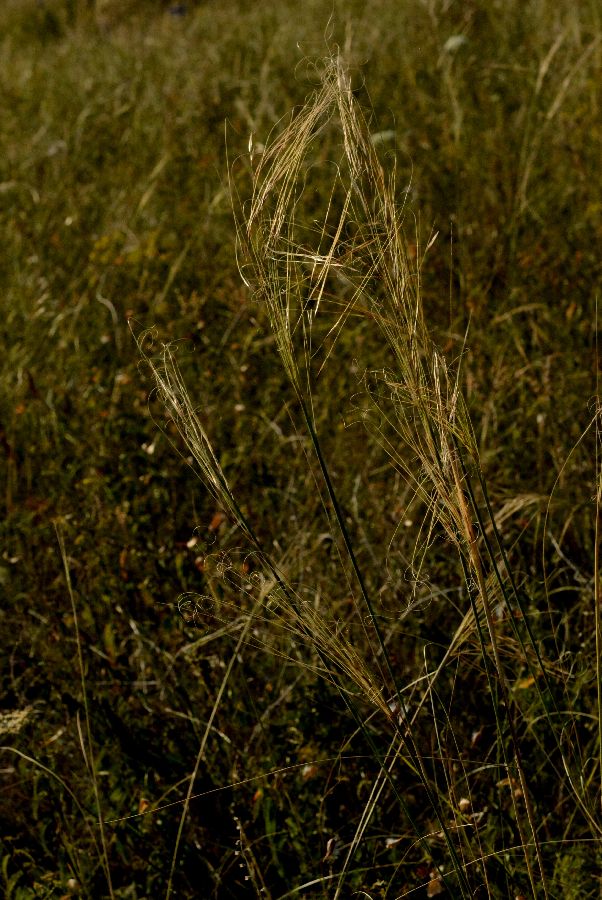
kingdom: Plantae
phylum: Tracheophyta
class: Liliopsida
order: Poales
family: Poaceae
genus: Stipa
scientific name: Stipa capillata
